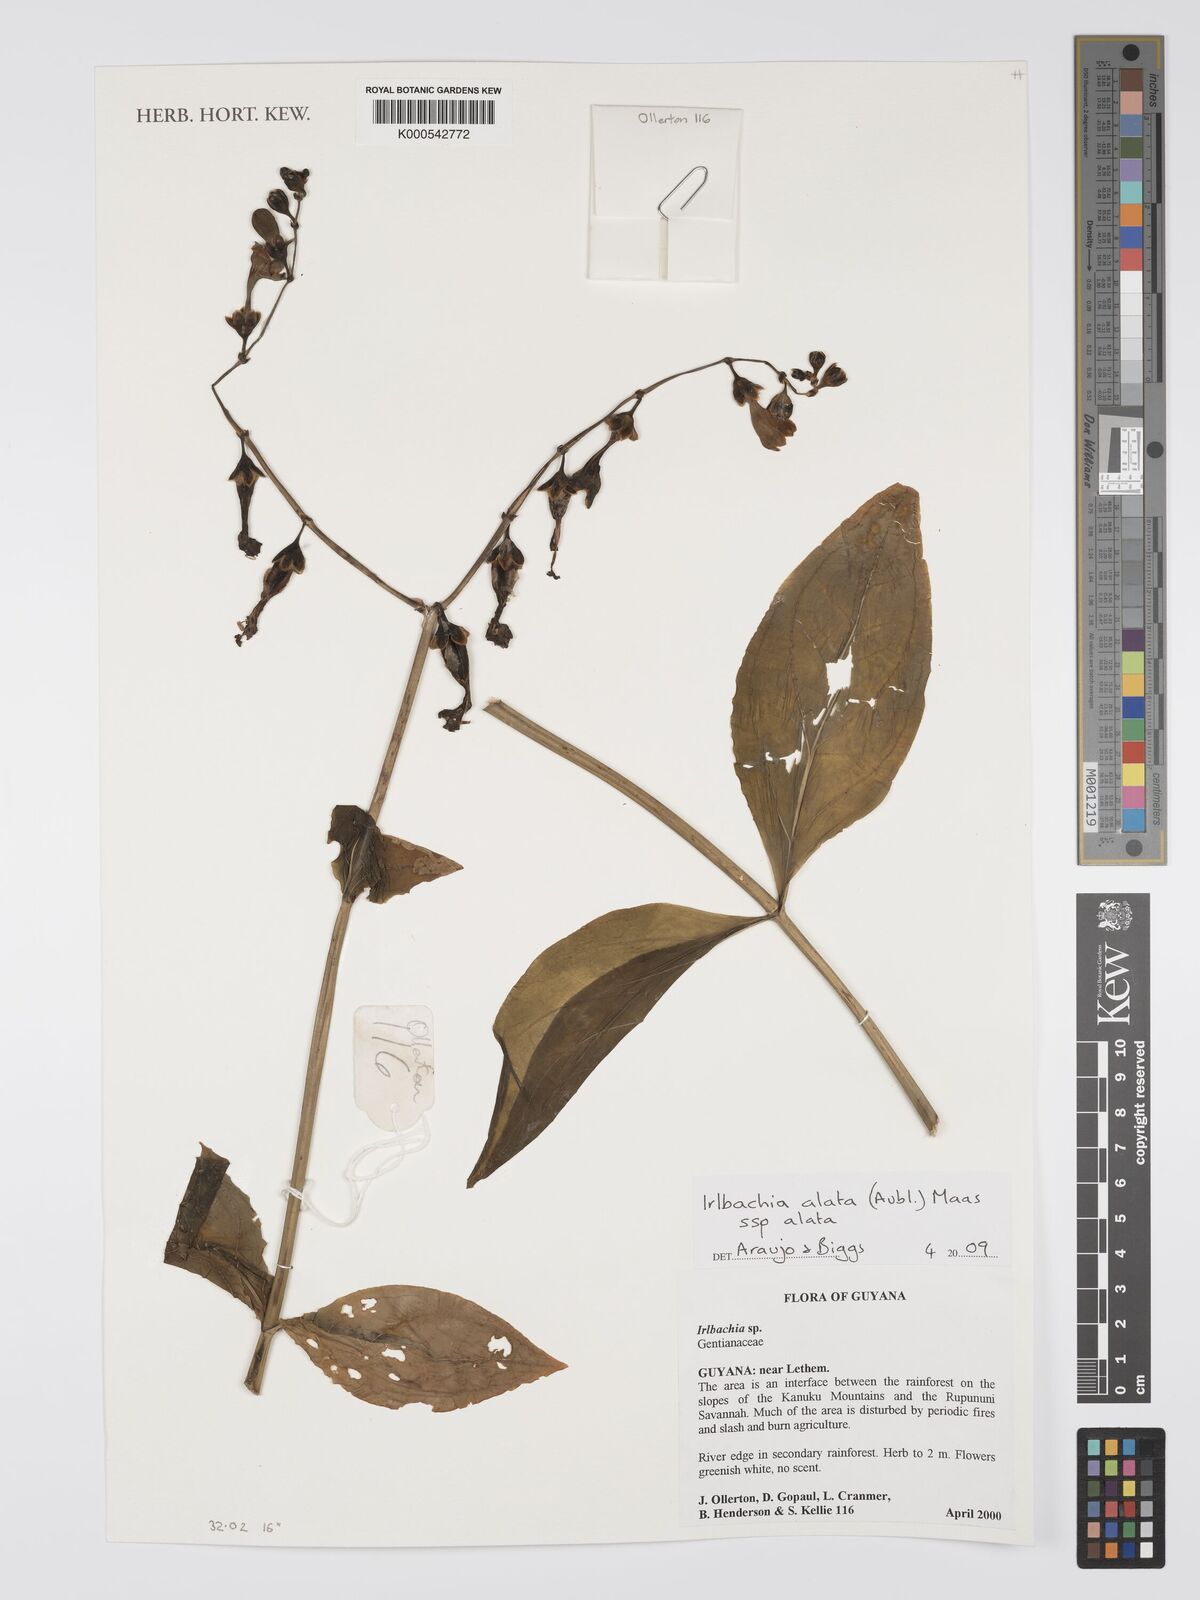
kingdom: Plantae
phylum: Tracheophyta
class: Magnoliopsida
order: Gentianales
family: Gentianaceae
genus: Chelonanthus
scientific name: Chelonanthus alatus
